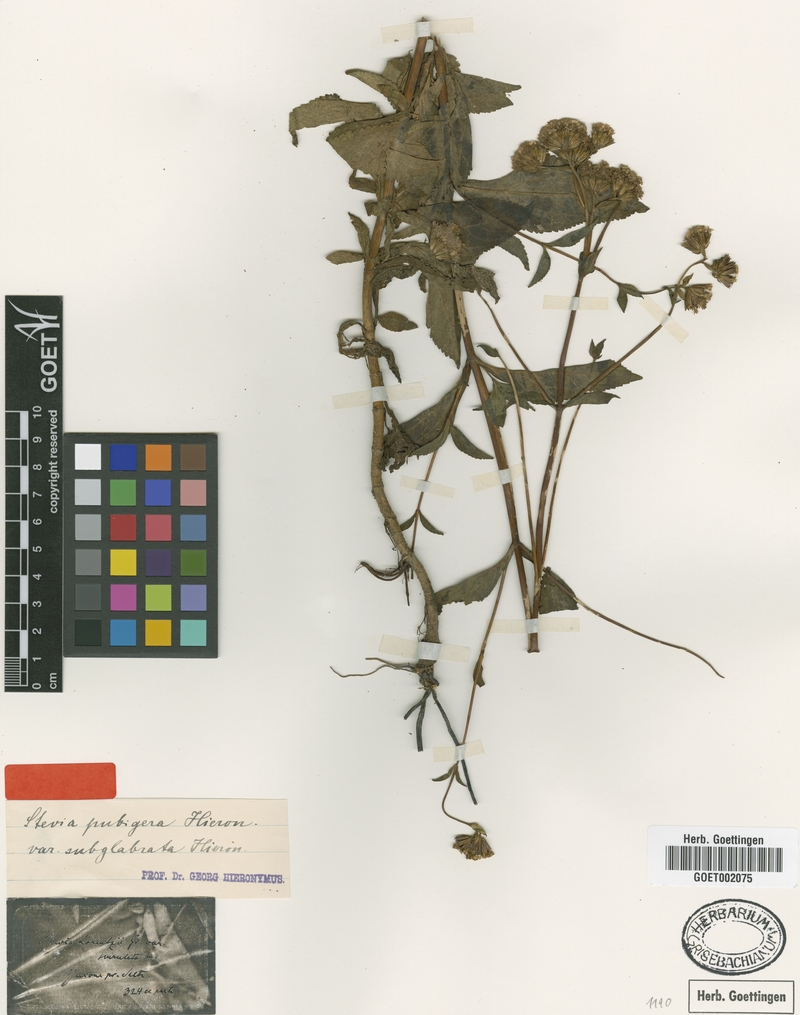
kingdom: Plantae
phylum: Tracheophyta
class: Magnoliopsida
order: Asterales
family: Asteraceae
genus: Stevia
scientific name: Stevia breviaristata
